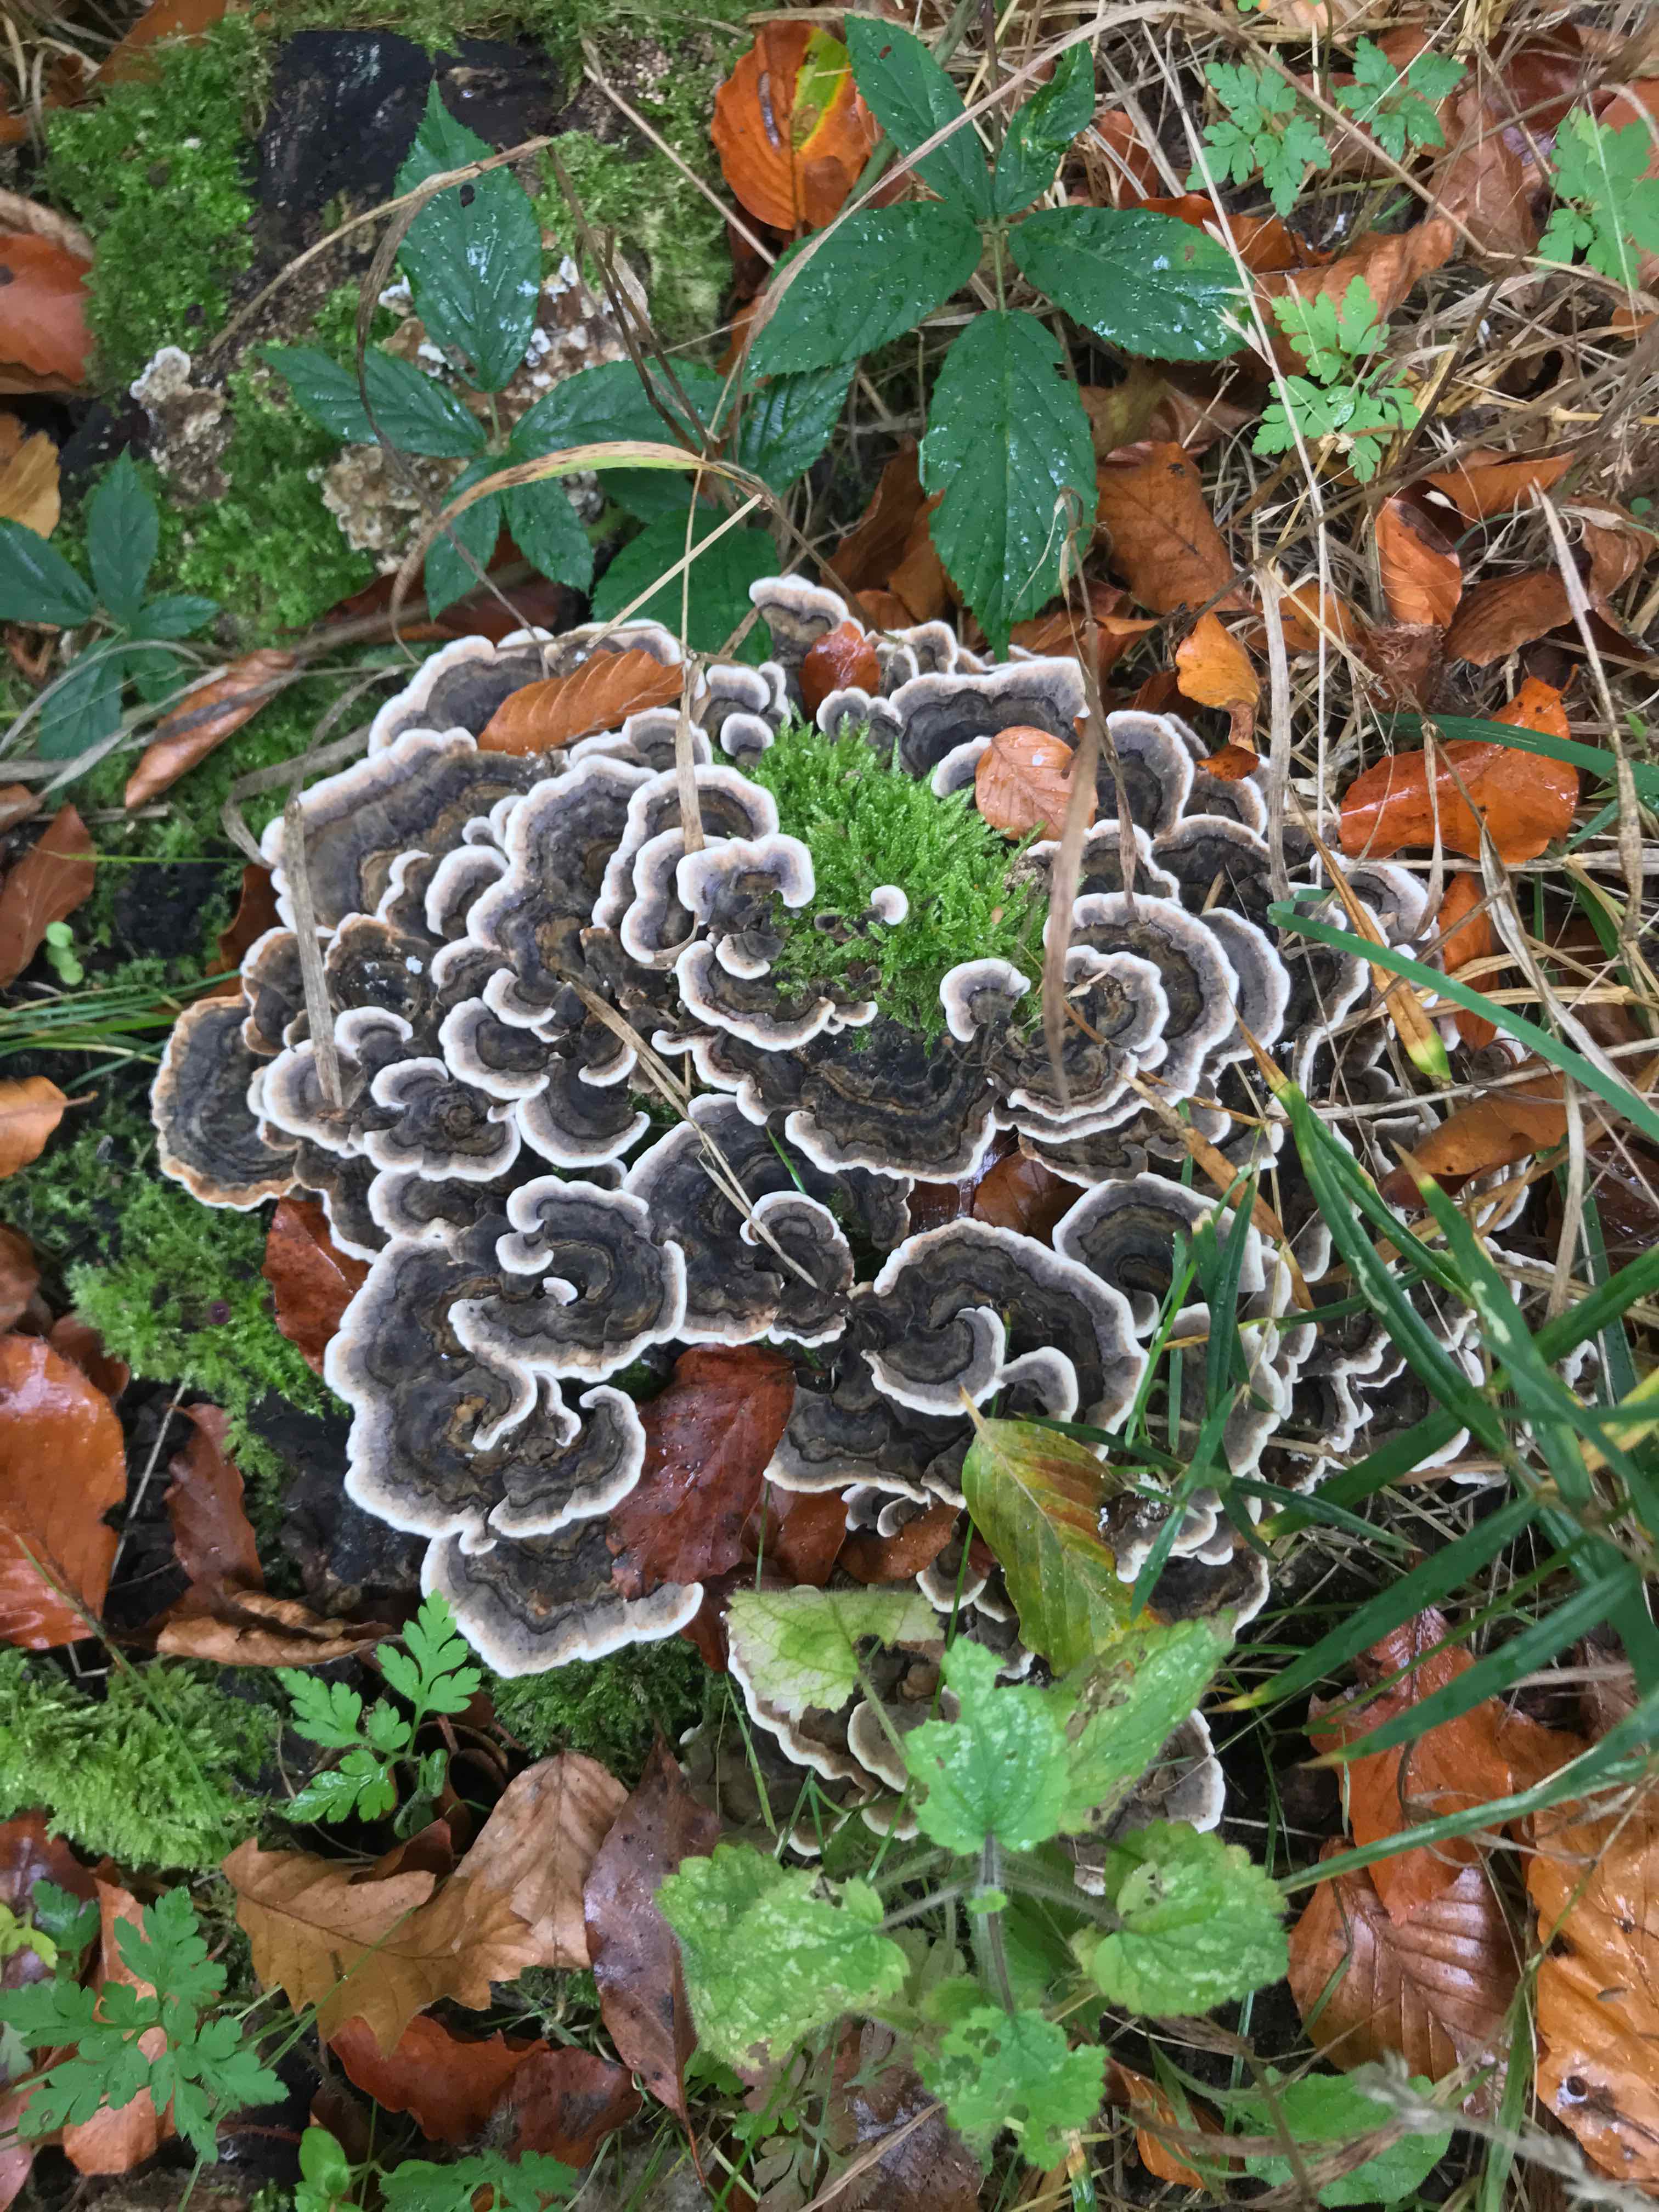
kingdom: Fungi
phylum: Basidiomycota
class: Agaricomycetes
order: Polyporales
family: Polyporaceae
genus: Trametes
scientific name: Trametes versicolor
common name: broget læderporesvamp
